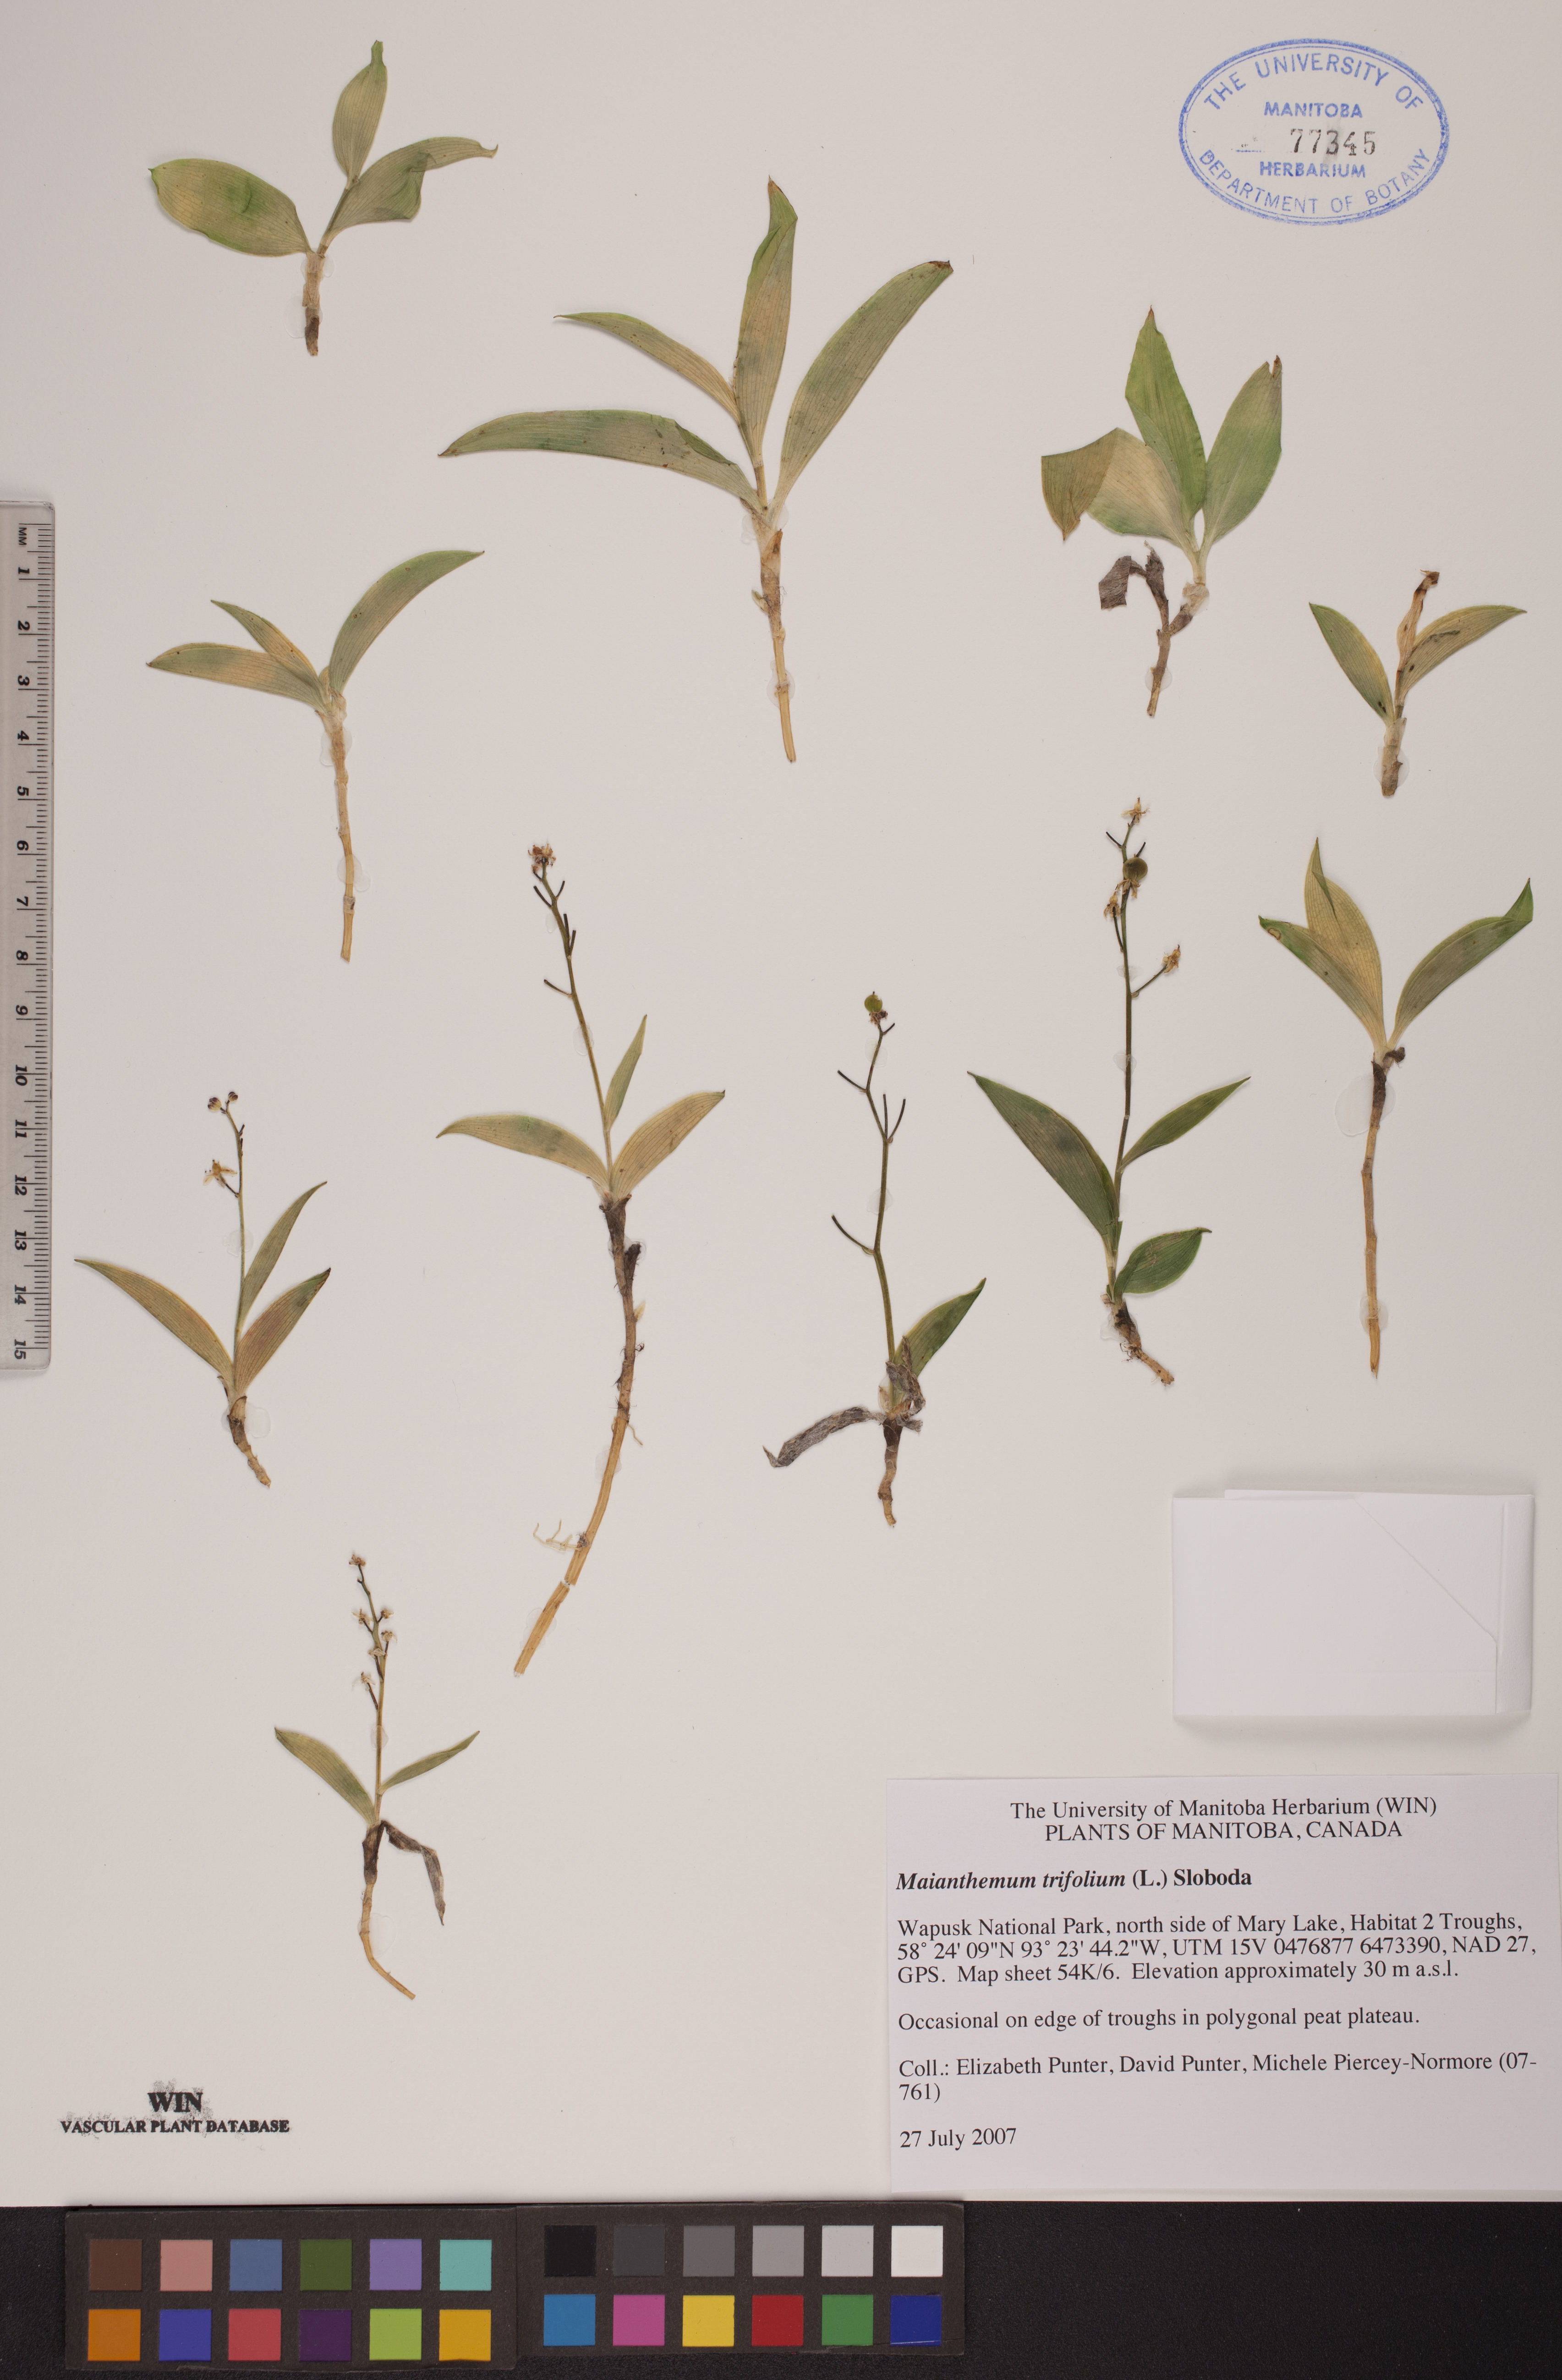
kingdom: Plantae
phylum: Tracheophyta
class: Liliopsida
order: Asparagales
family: Asparagaceae
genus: Maianthemum
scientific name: Maianthemum trifolium
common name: Swamp false solomon's seal
